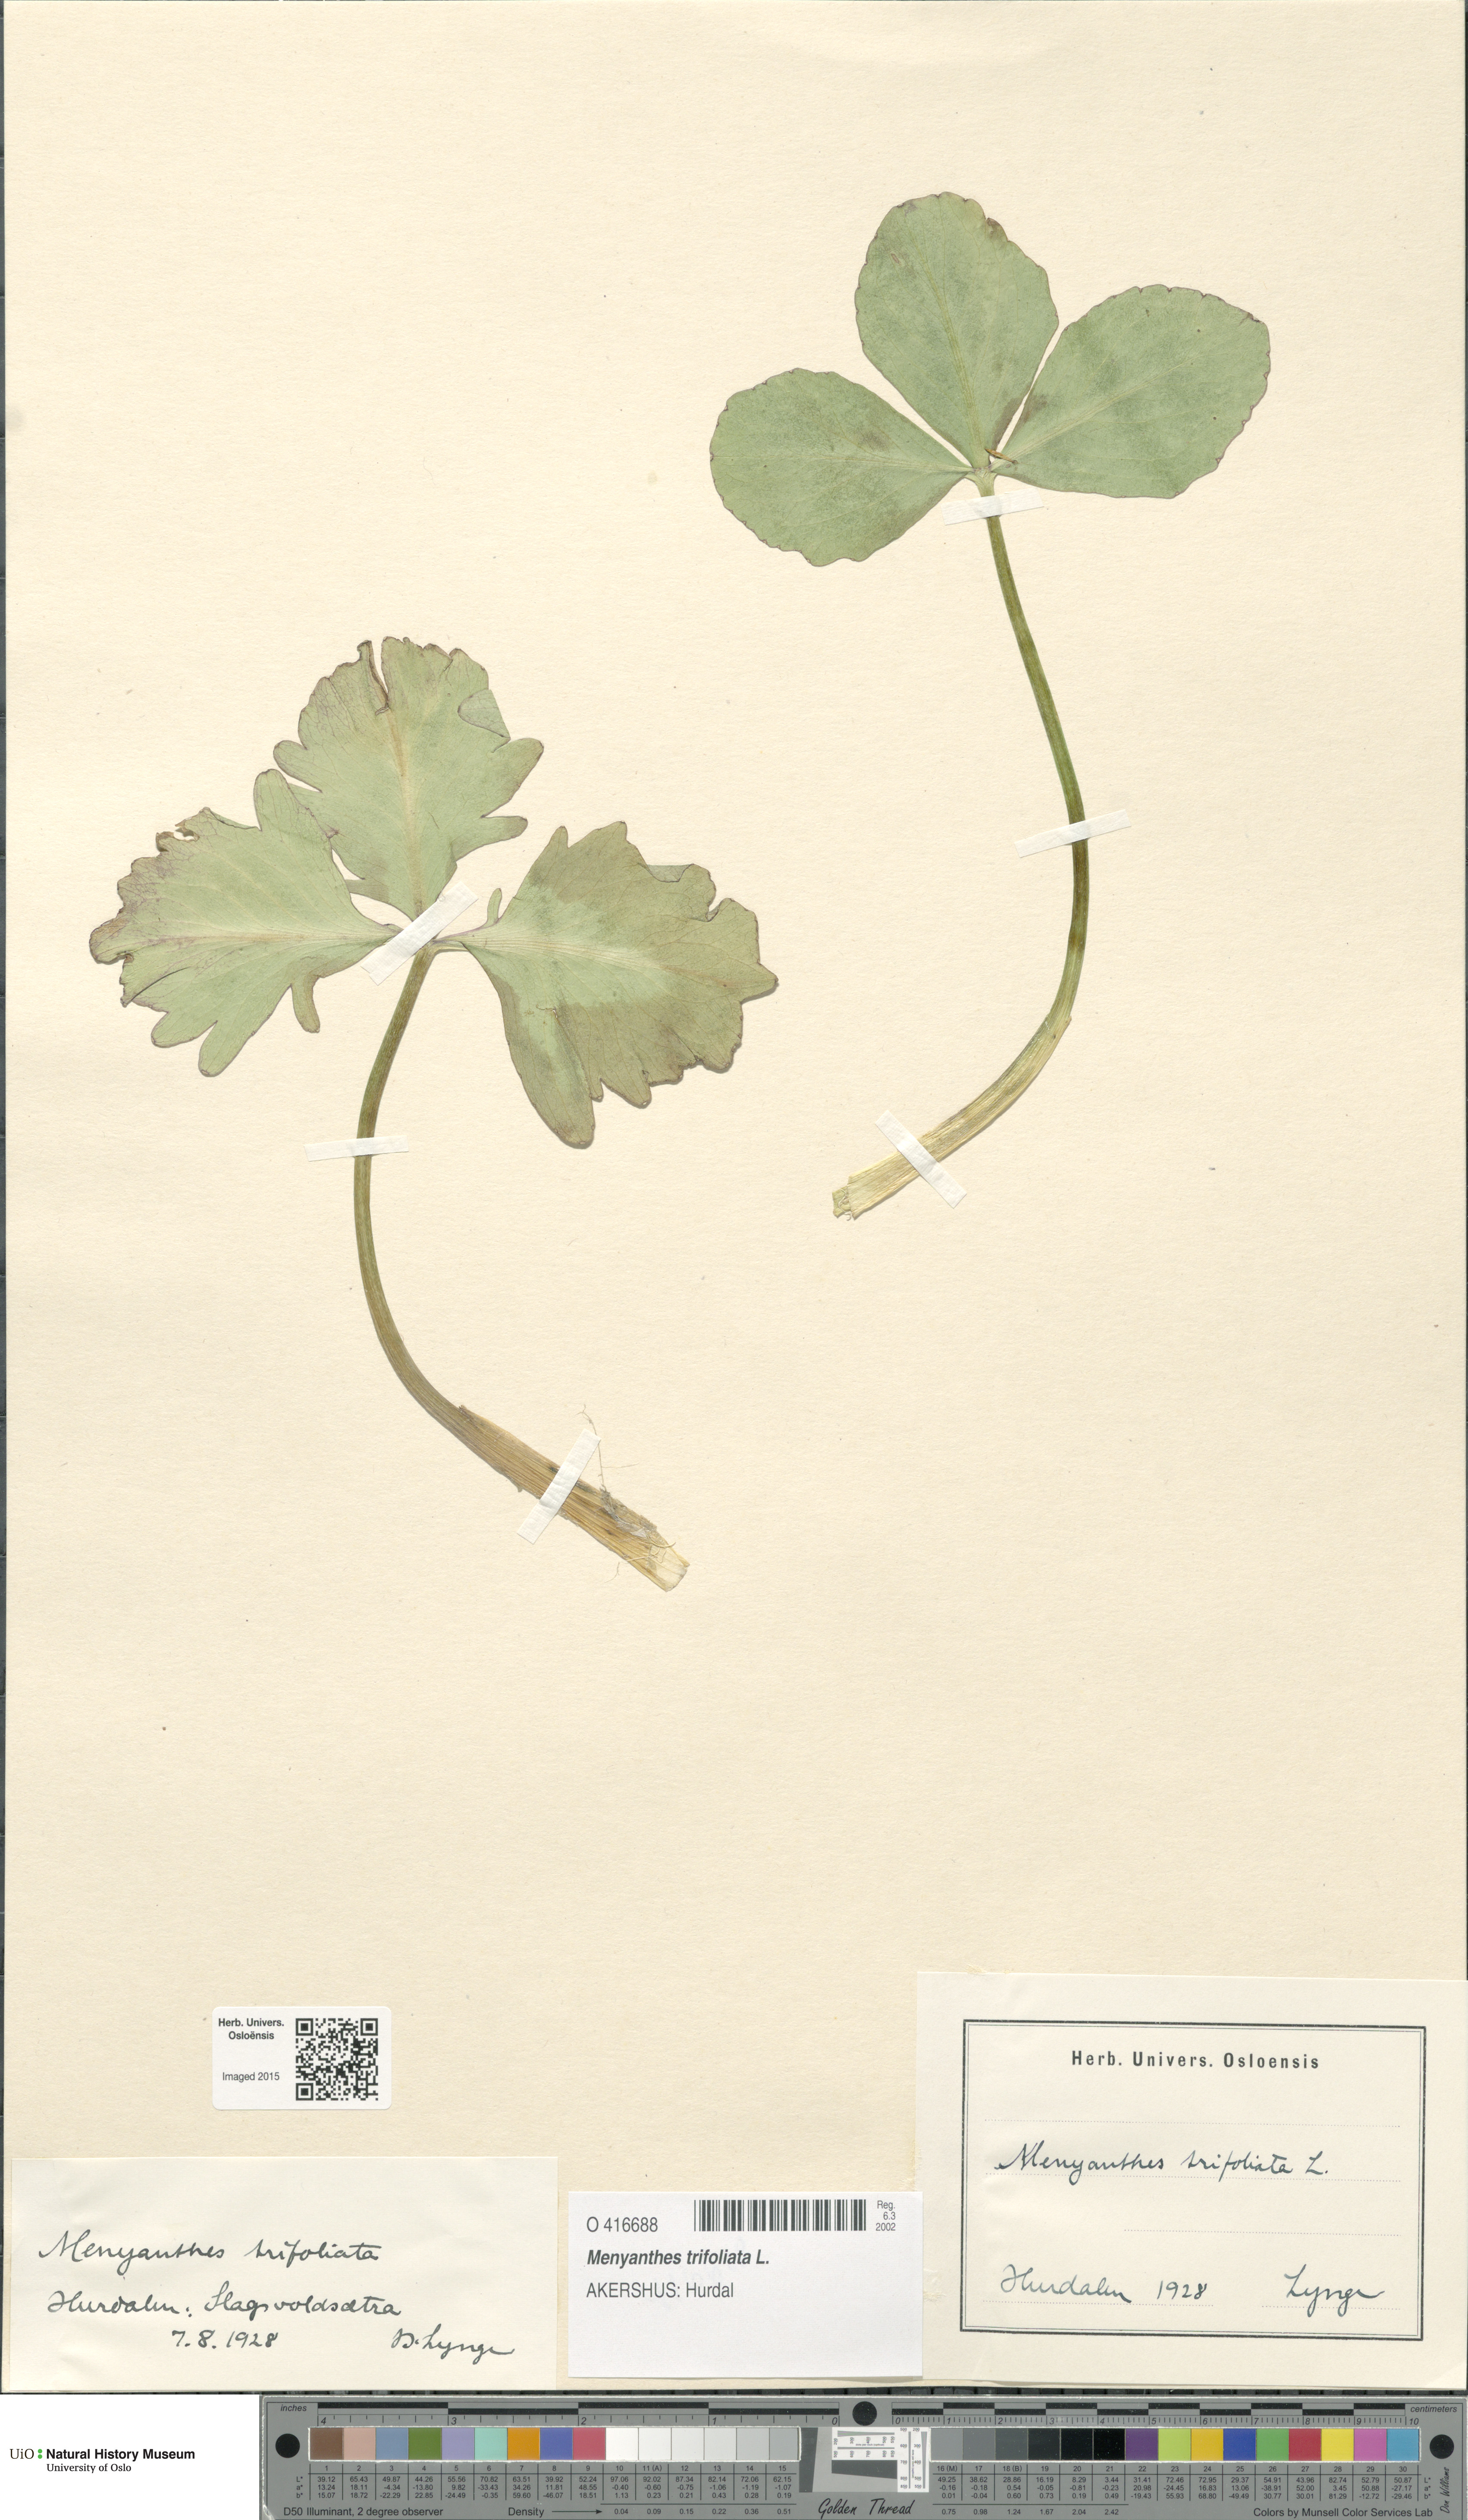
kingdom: Plantae
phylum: Tracheophyta
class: Magnoliopsida
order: Asterales
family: Menyanthaceae
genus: Menyanthes
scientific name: Menyanthes trifoliata
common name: Bogbean
